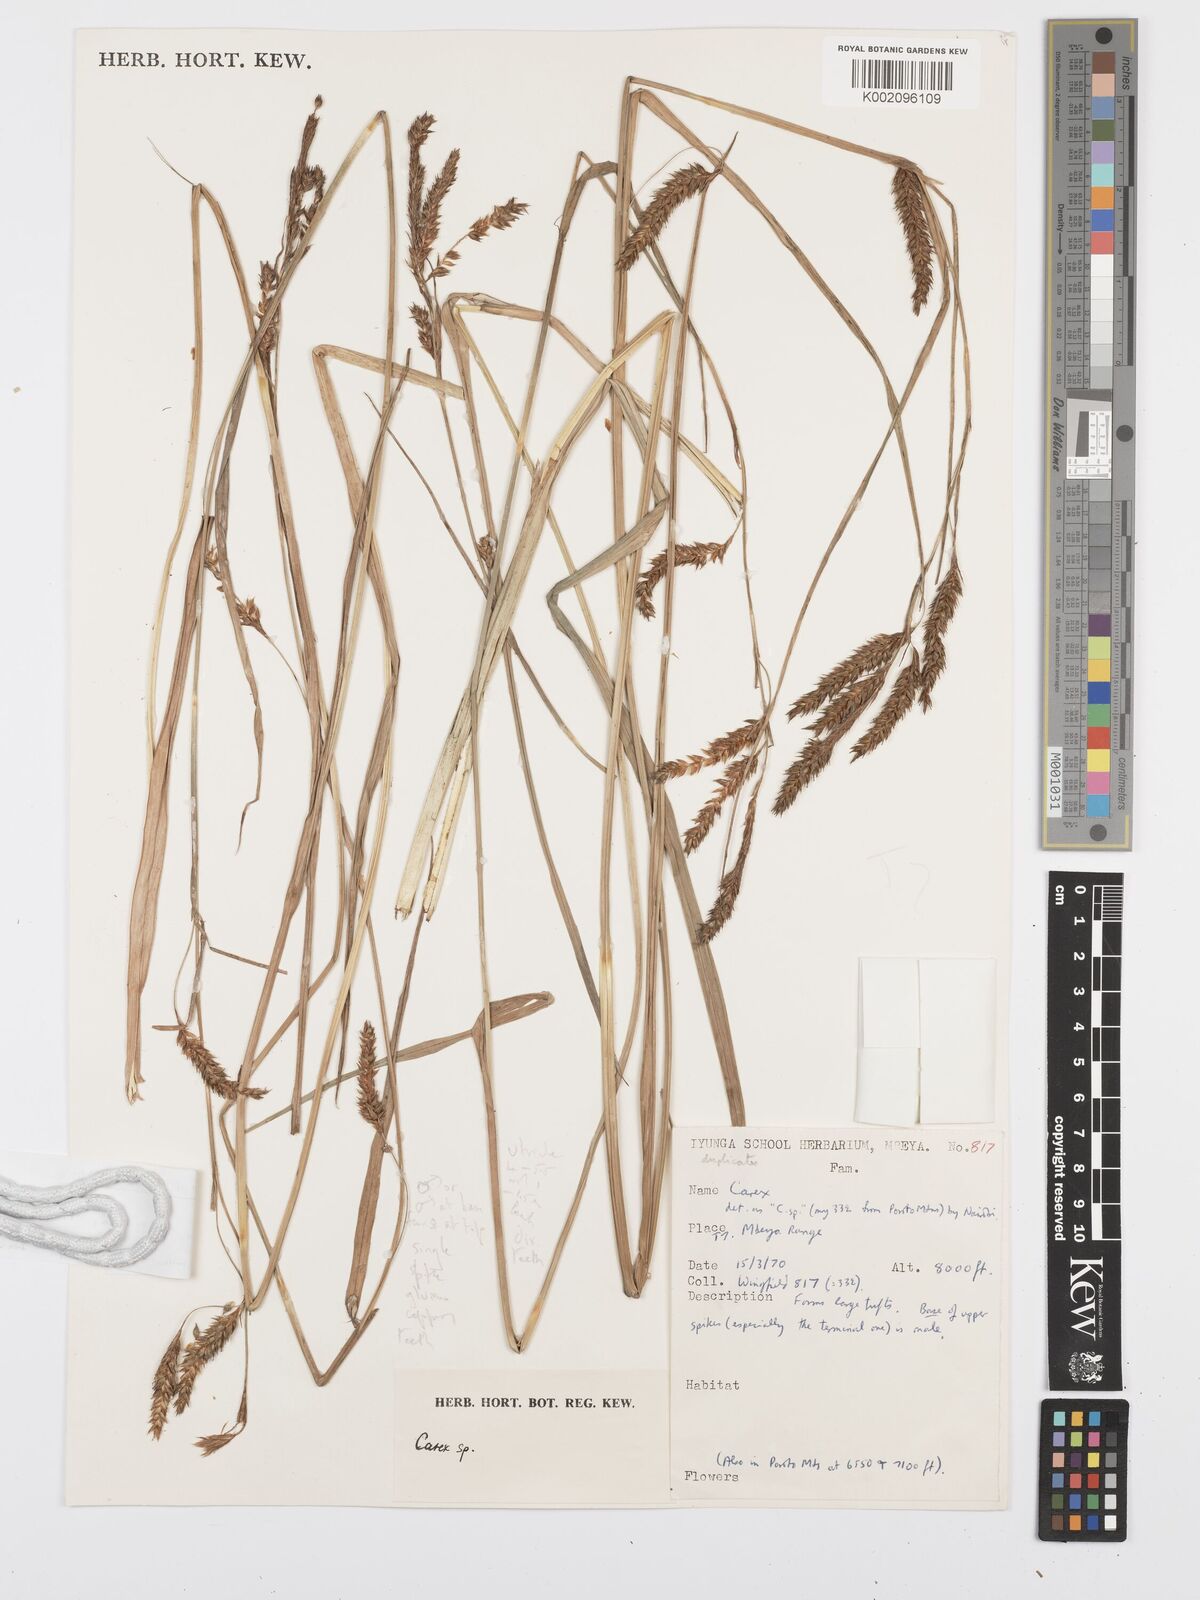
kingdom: Plantae
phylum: Tracheophyta
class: Liliopsida
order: Poales
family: Cyperaceae
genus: Carex
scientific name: Carex petitiana
